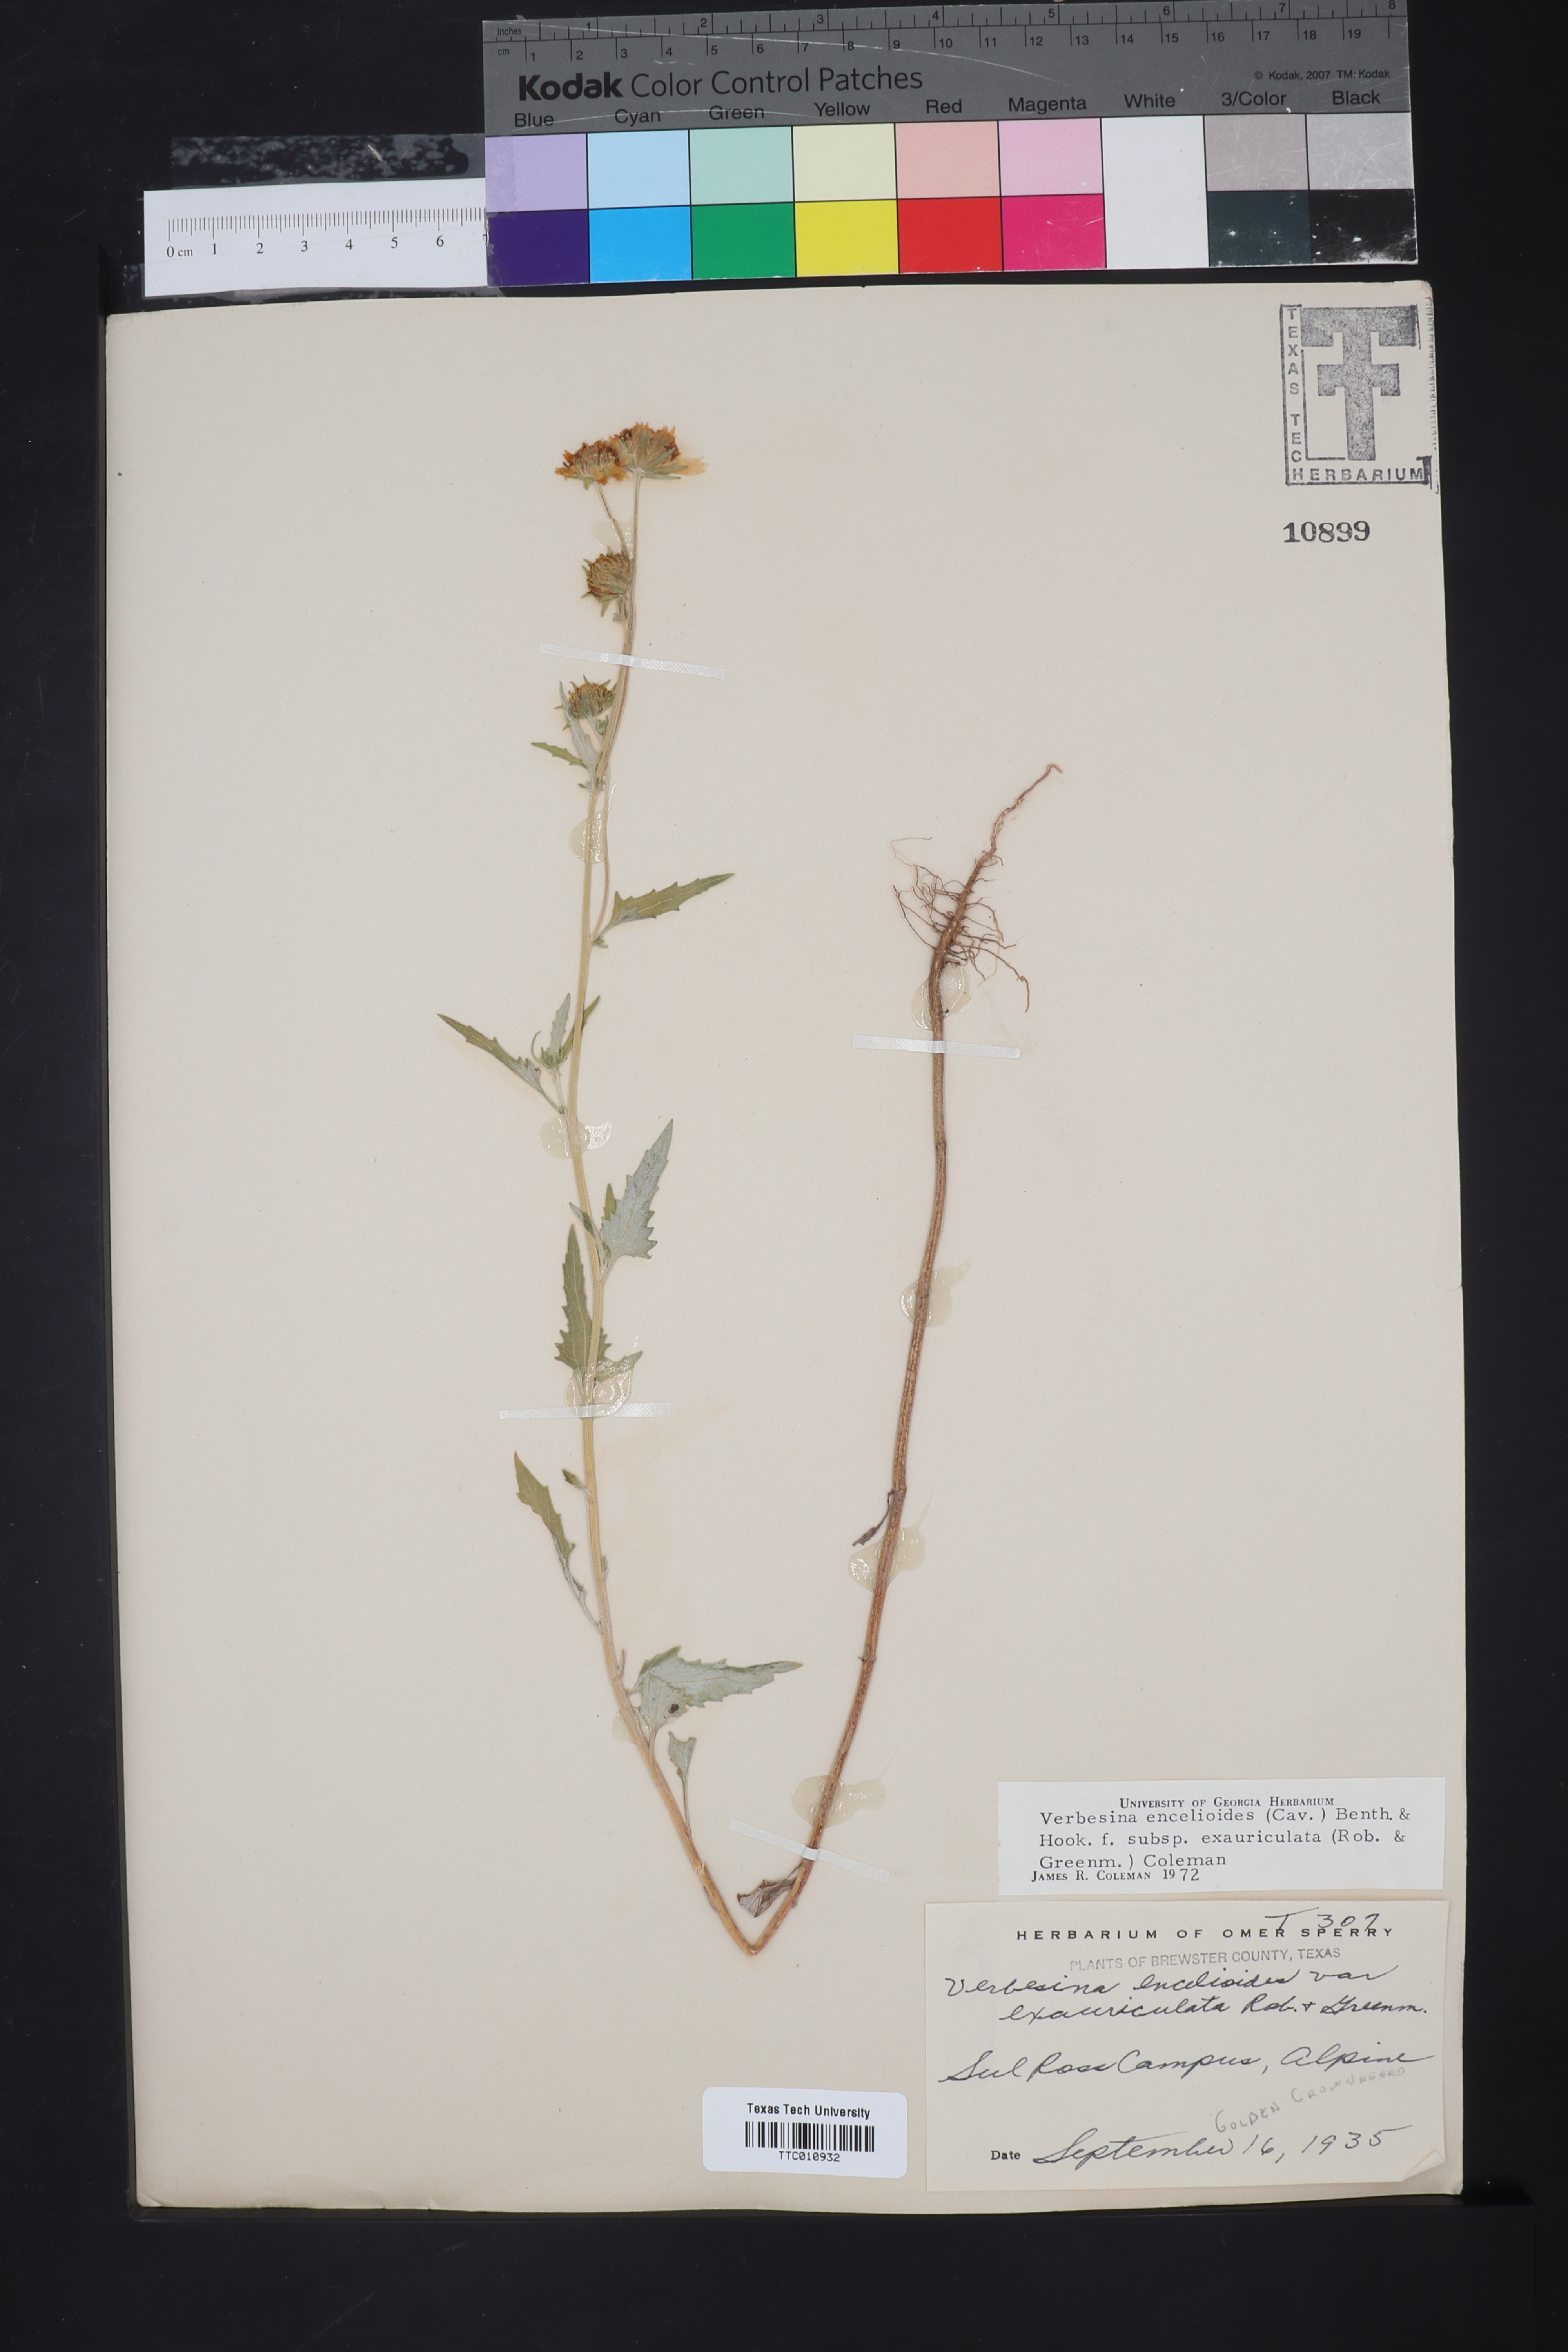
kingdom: Plantae
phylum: Tracheophyta
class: Magnoliopsida
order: Asterales
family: Asteraceae
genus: Verbesina
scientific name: Verbesina encelioides
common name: Golden crownbeard
